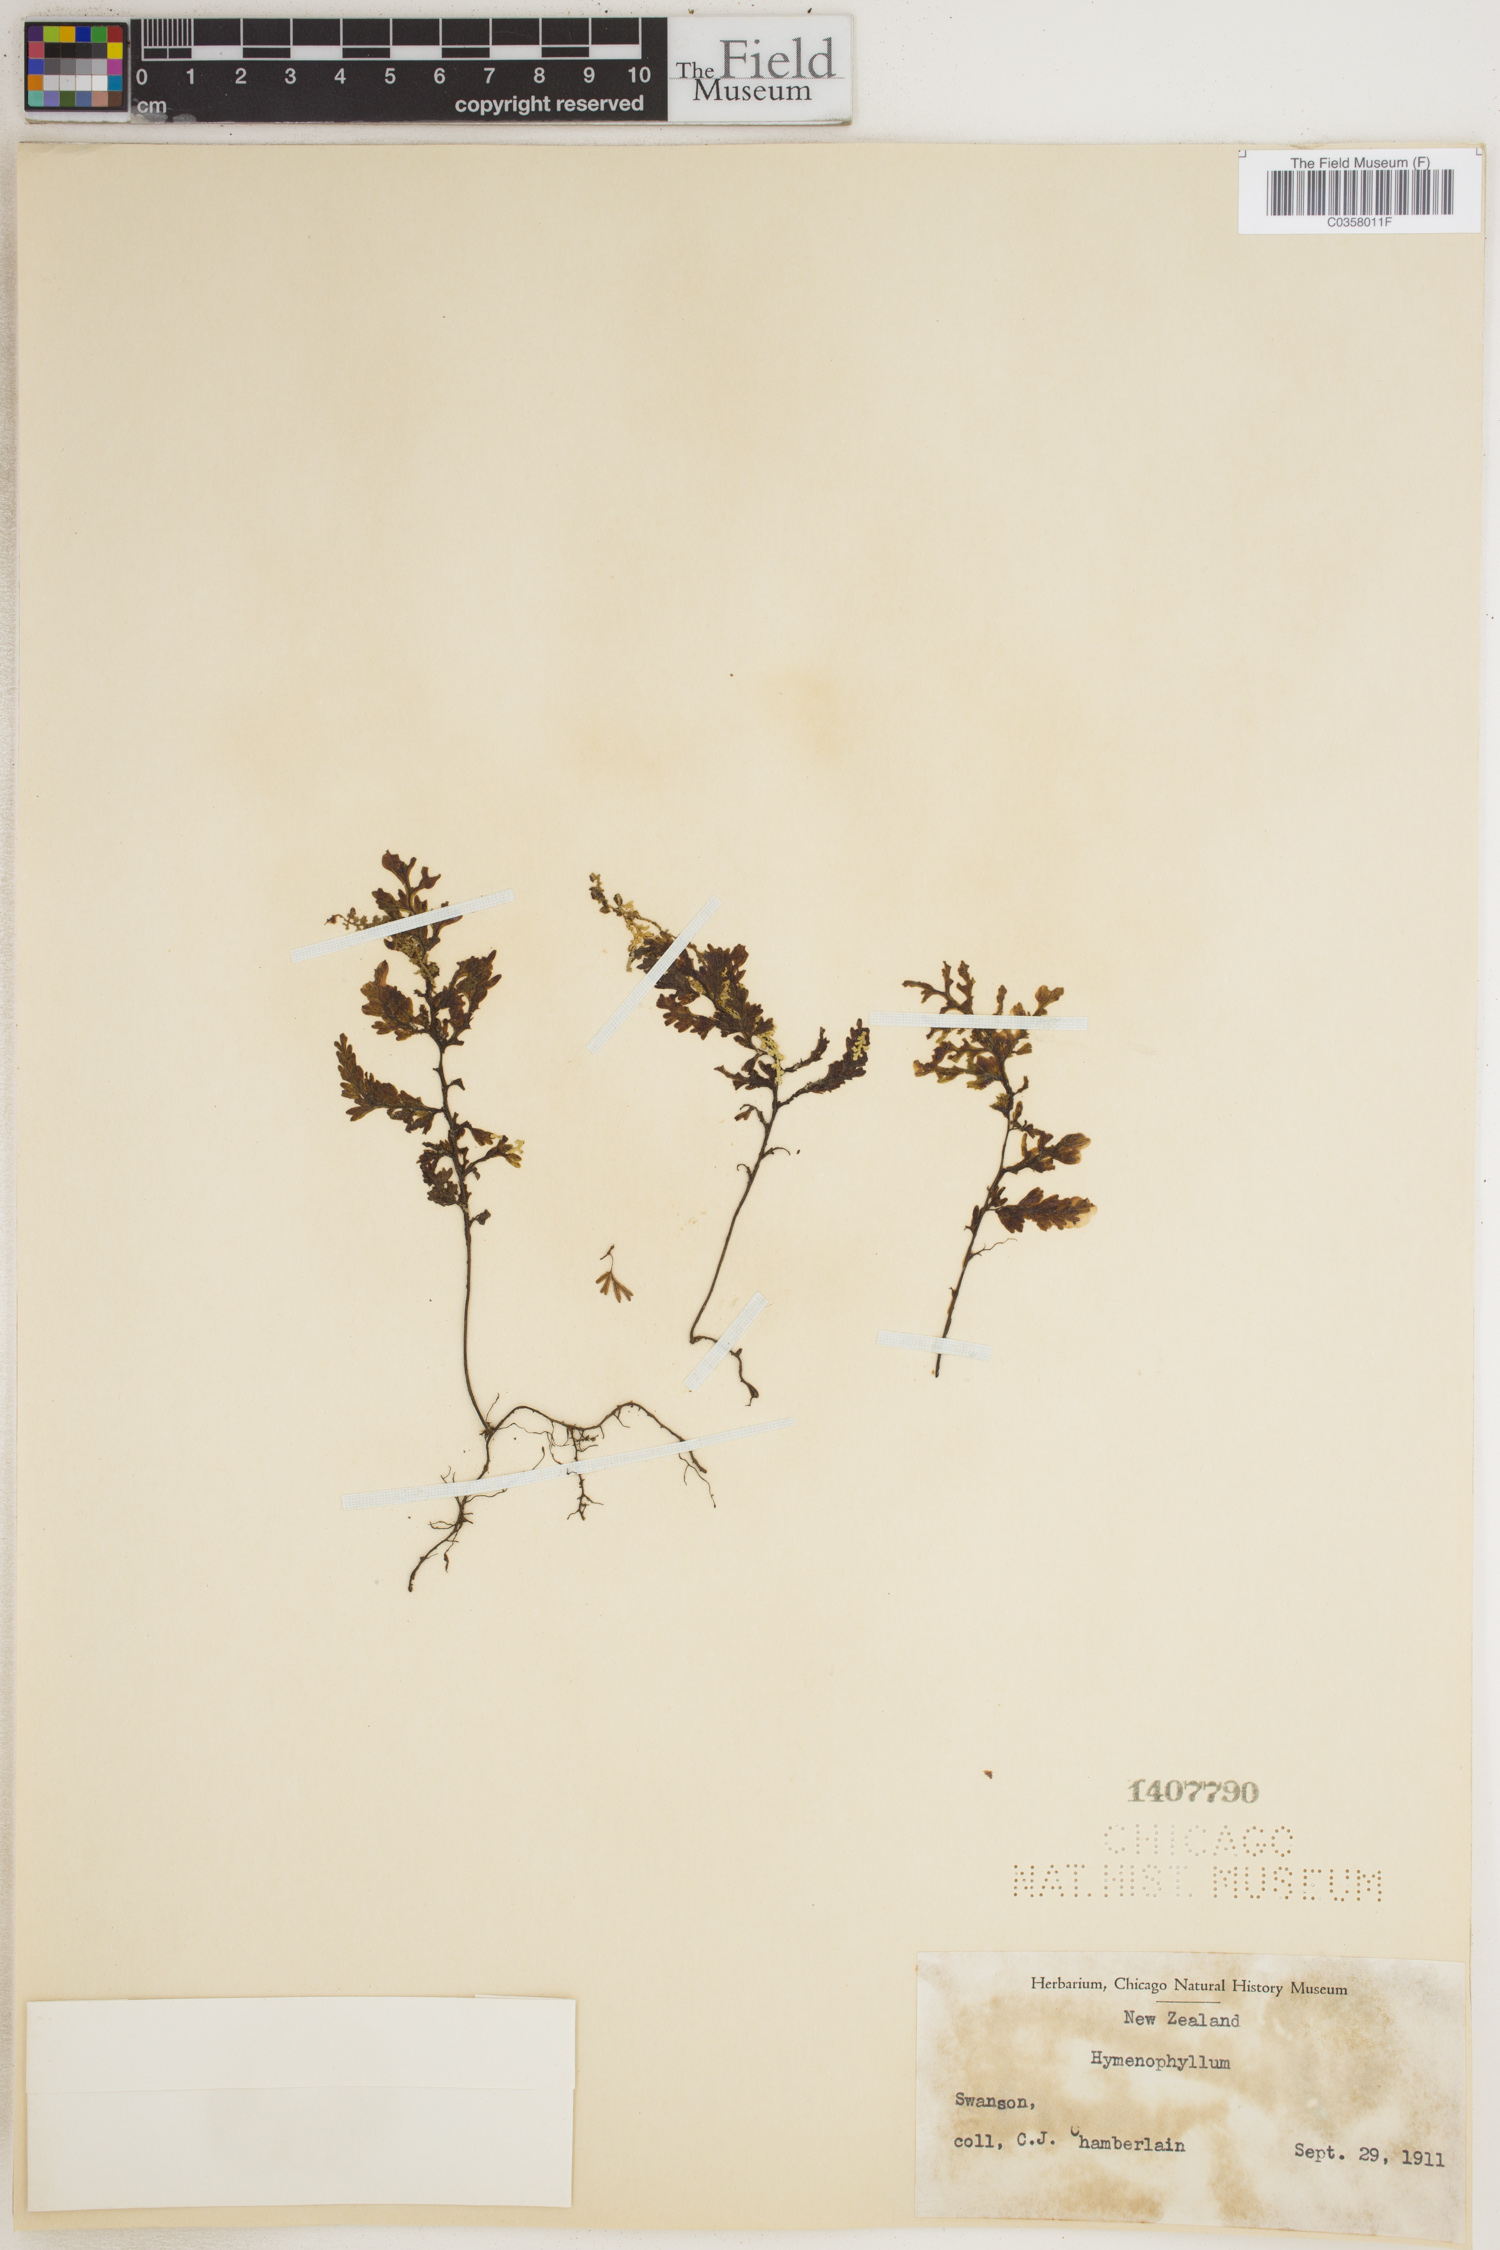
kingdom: Plantae
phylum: Tracheophyta
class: Polypodiopsida
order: Hymenophyllales
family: Hymenophyllaceae
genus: Hymenophyllum
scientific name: Hymenophyllum
